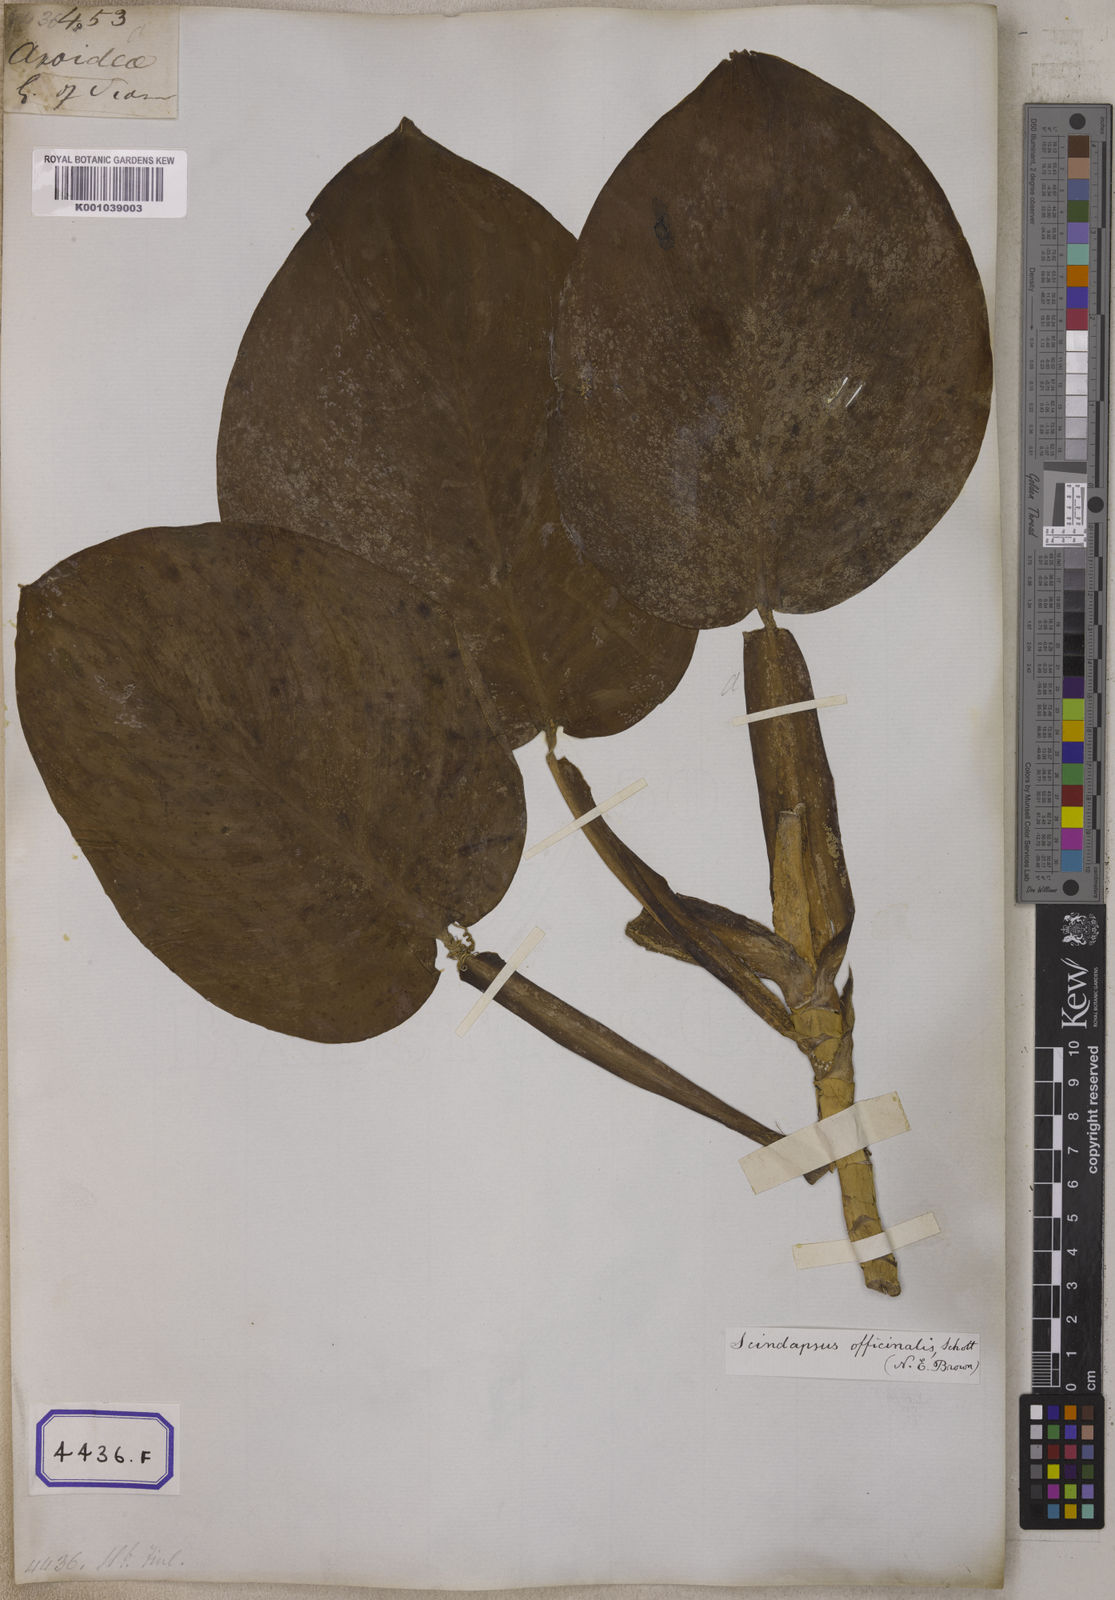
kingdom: Plantae
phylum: Tracheophyta
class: Liliopsida
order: Alismatales
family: Araceae
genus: Scindapsus
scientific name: Scindapsus officinalis
